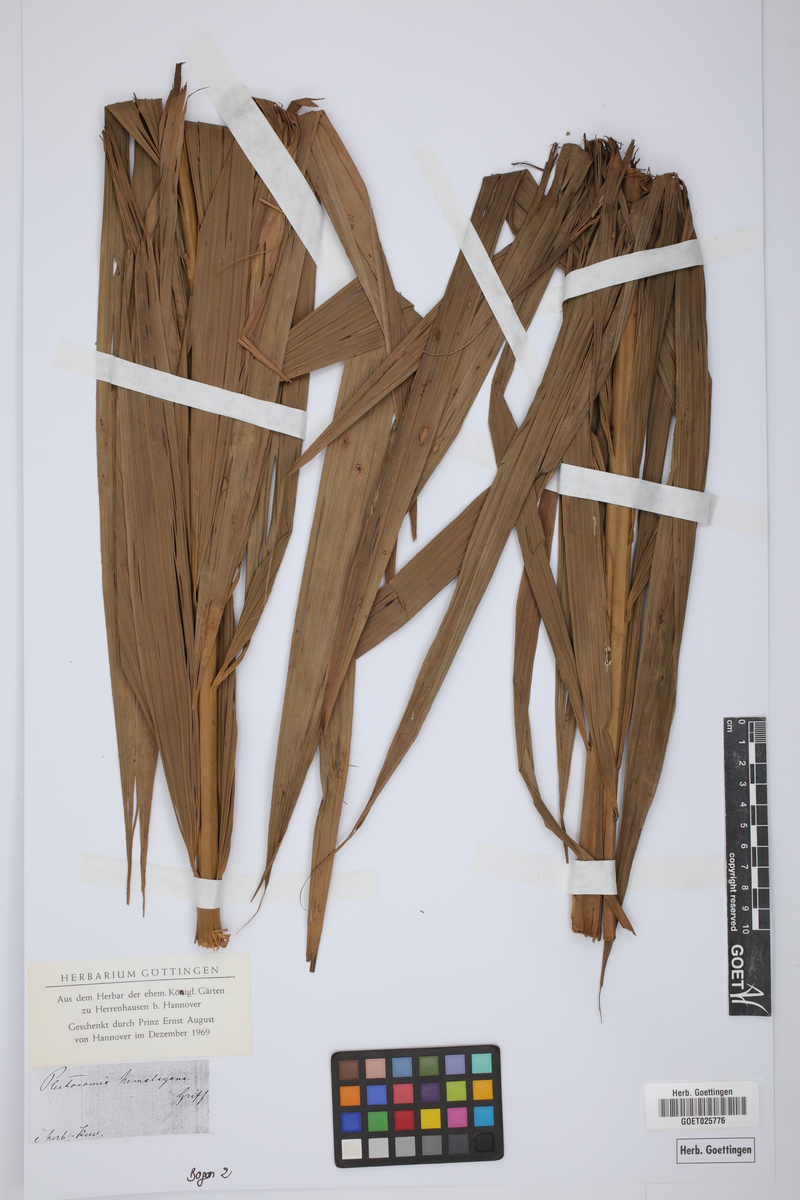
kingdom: Plantae
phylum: Tracheophyta
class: Liliopsida
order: Arecales
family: Arecaceae
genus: Plectocomia
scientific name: Plectocomia himalayana
